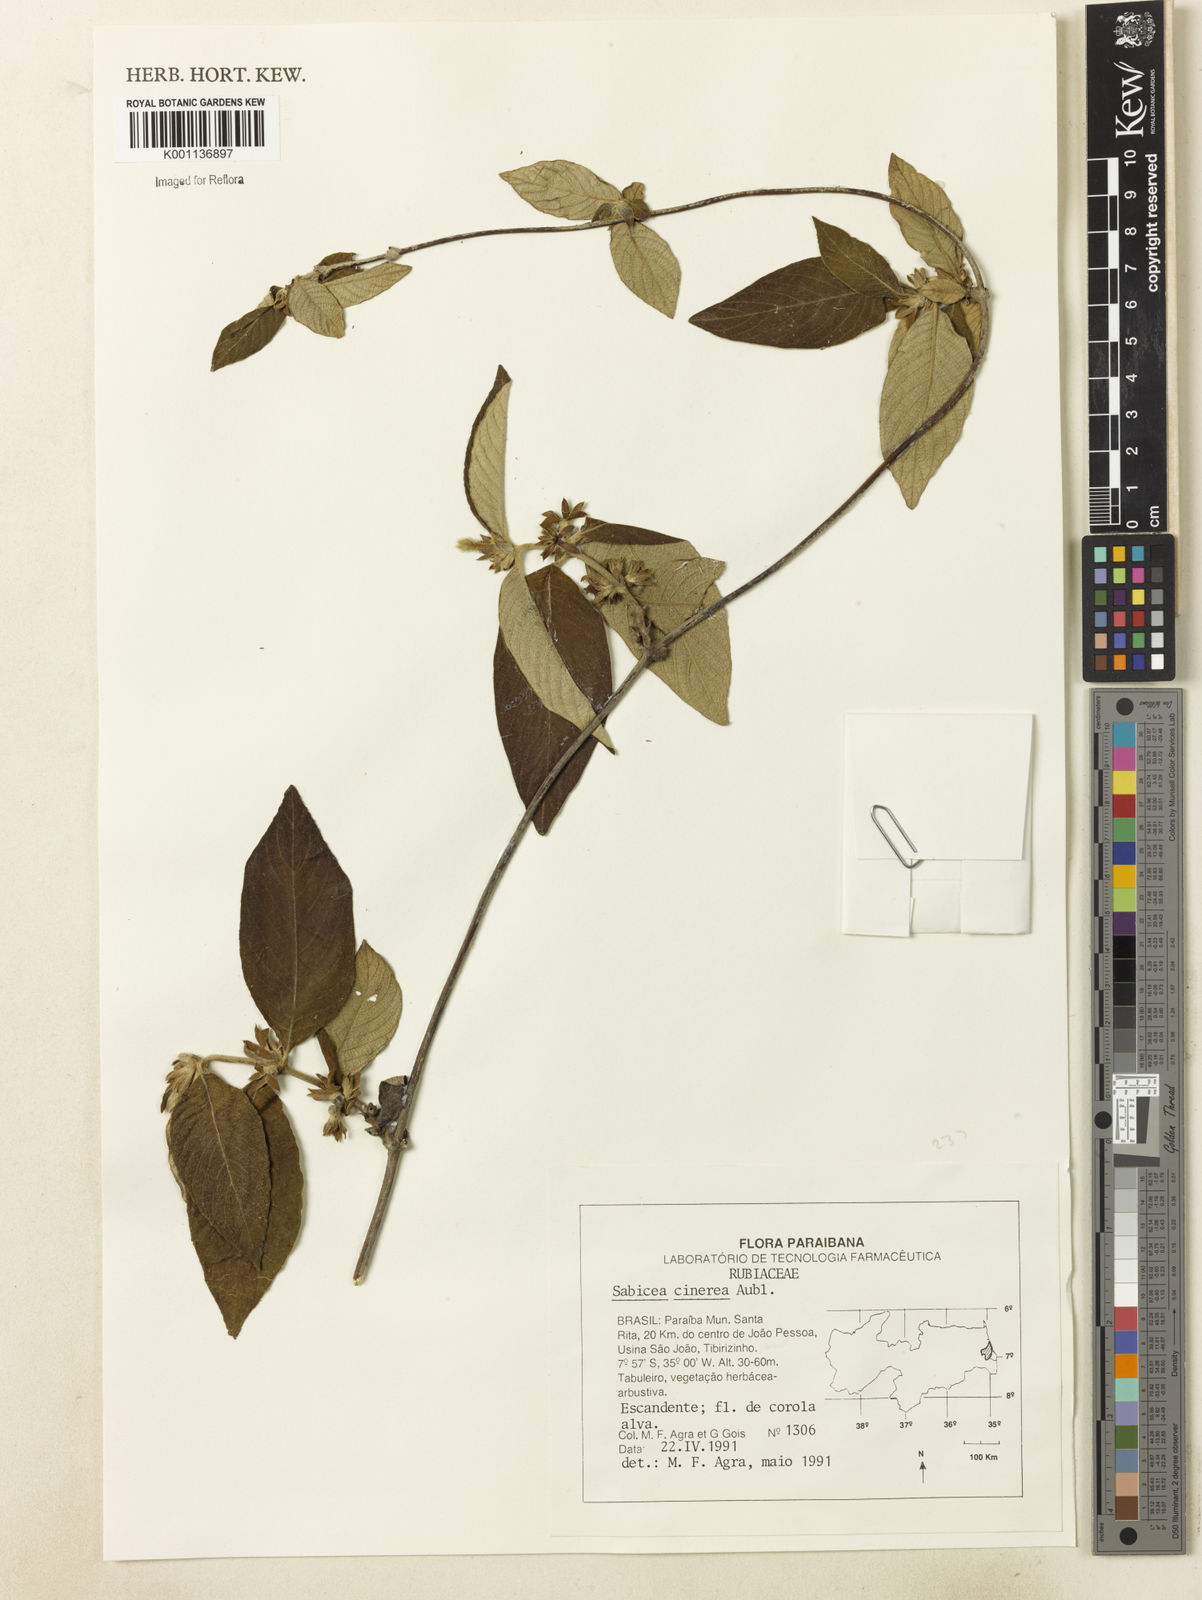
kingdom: Plantae
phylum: Tracheophyta
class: Magnoliopsida
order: Gentianales
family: Rubiaceae
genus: Sabicea
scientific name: Sabicea cinerea
